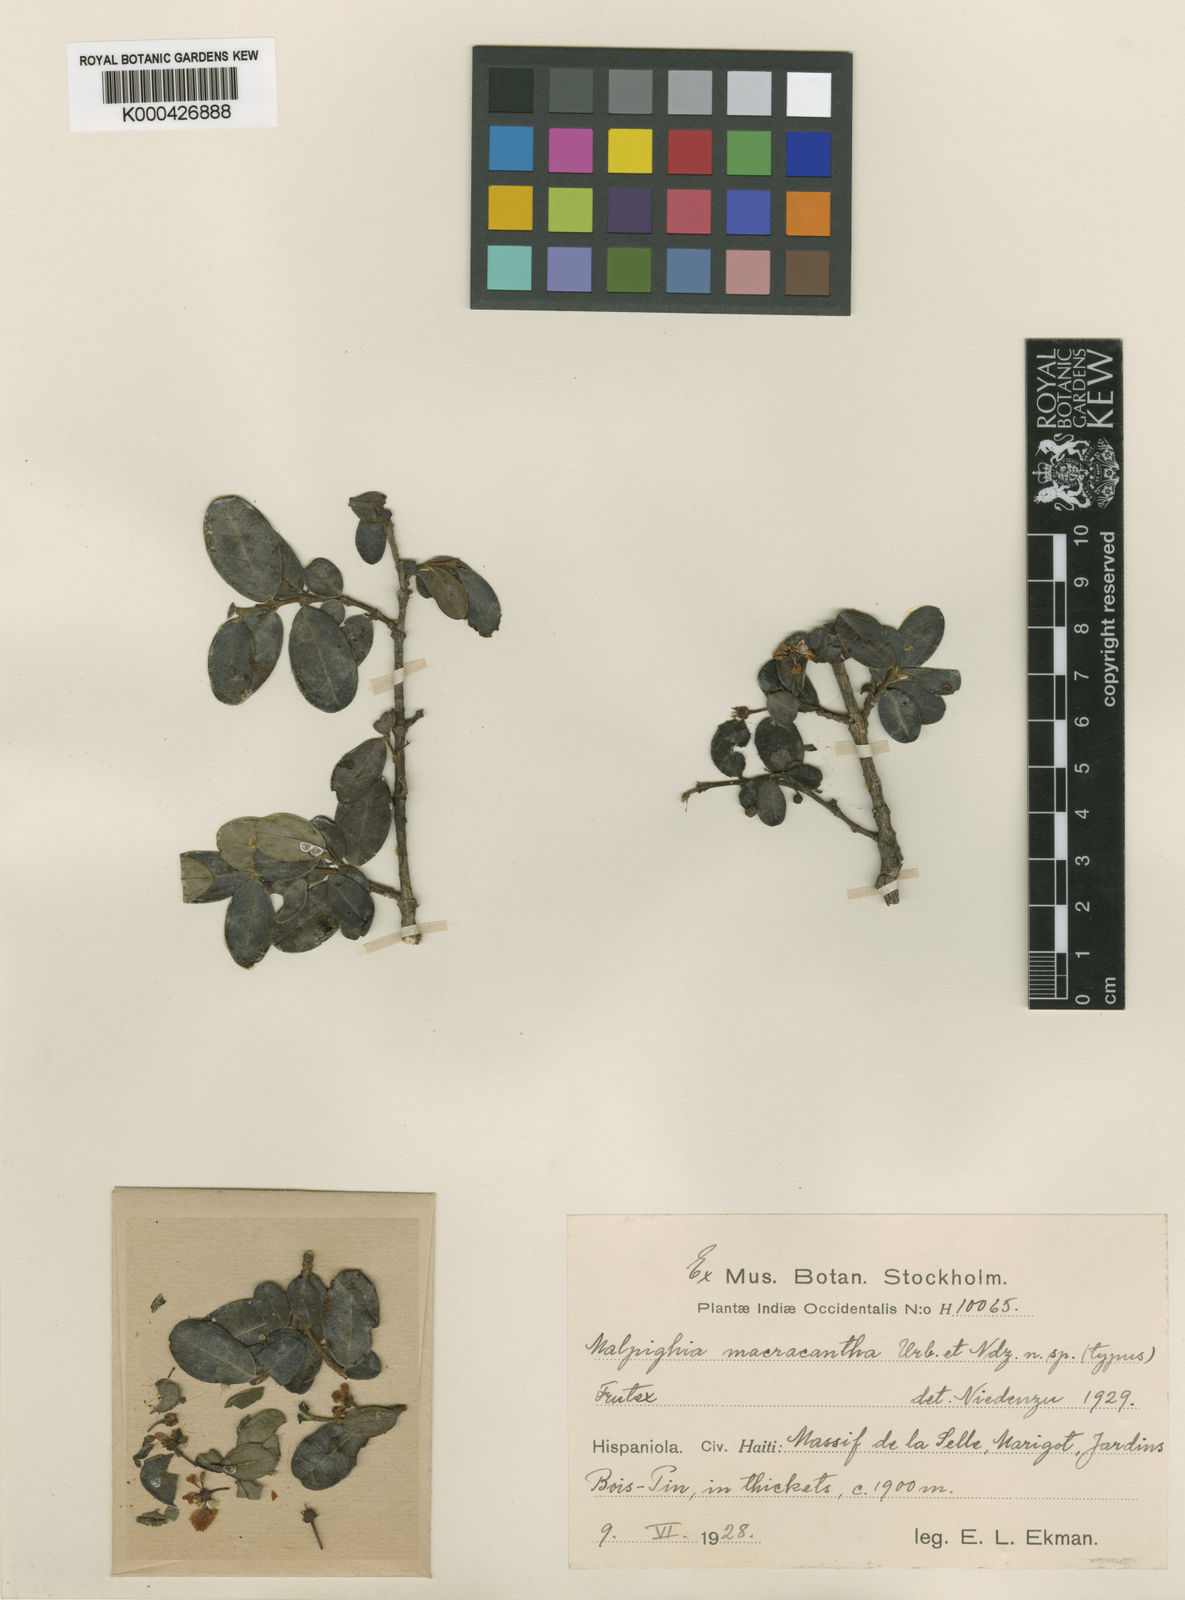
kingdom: Plantae
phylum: Tracheophyta
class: Magnoliopsida
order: Malpighiales
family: Malpighiaceae
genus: Malpighia
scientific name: Malpighia macracantha
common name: Longspine malpighia
